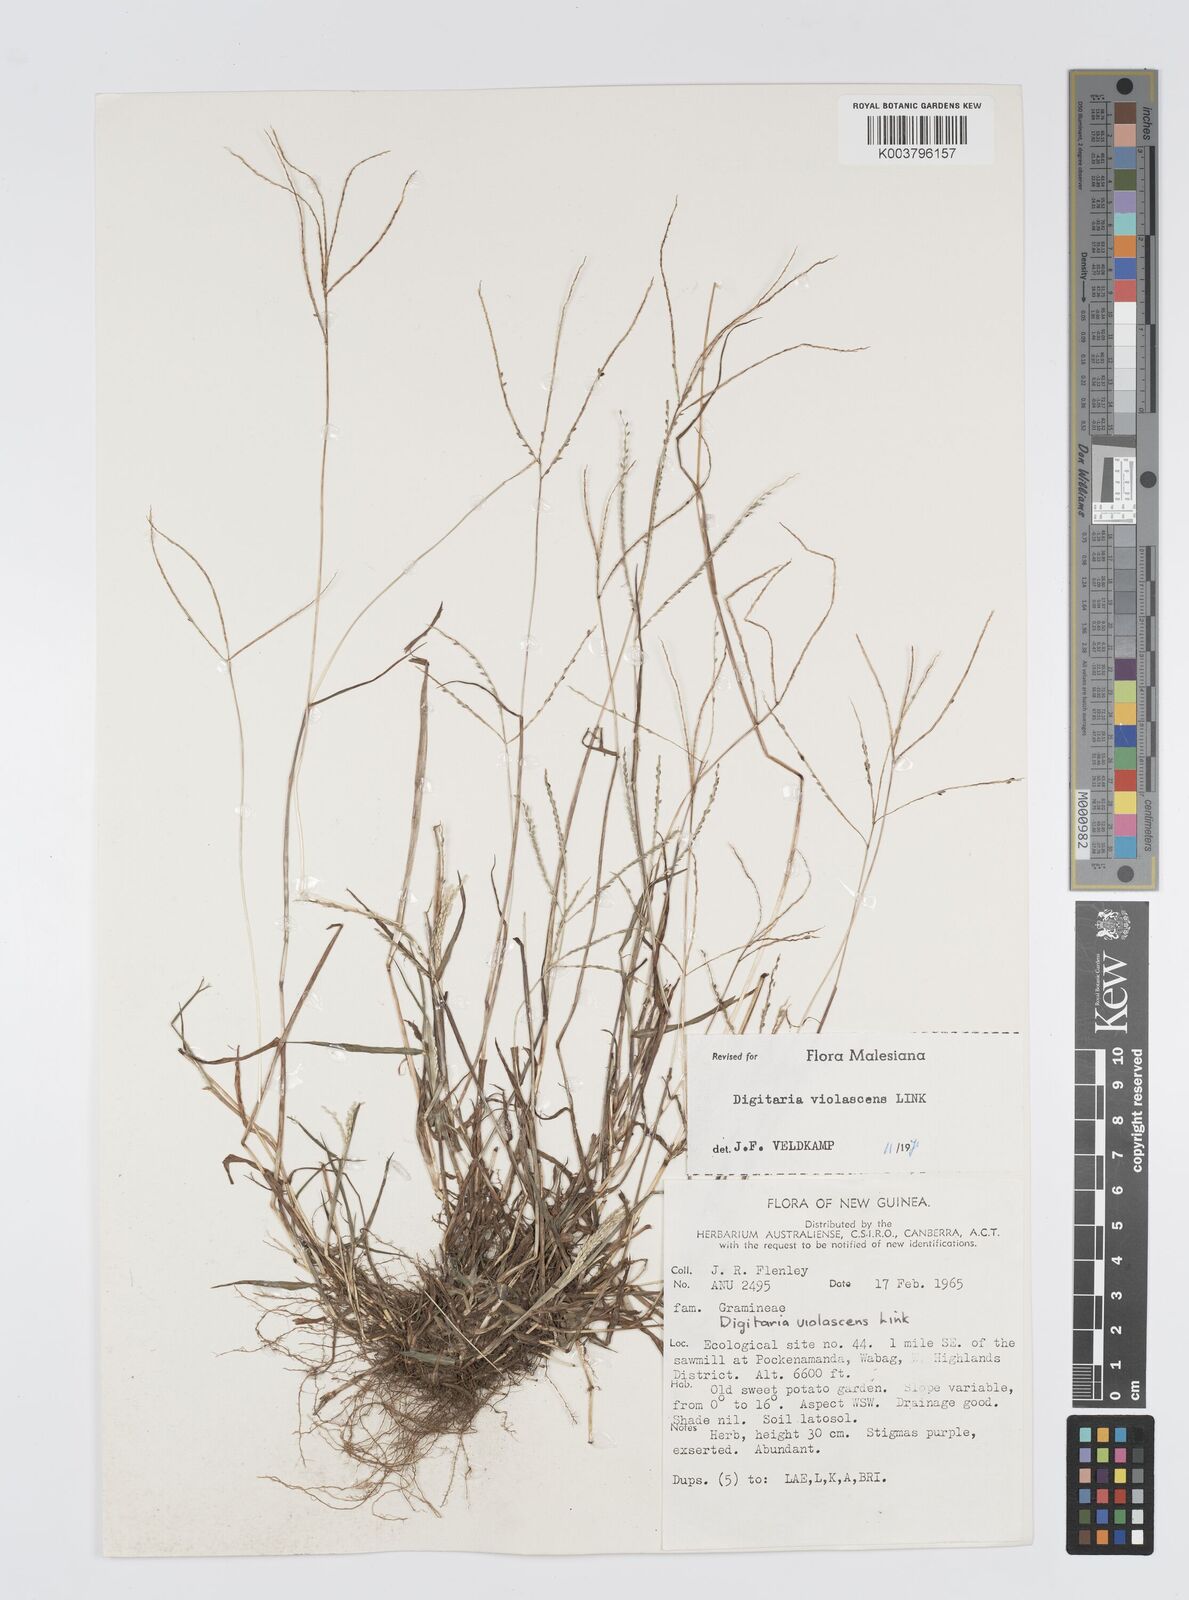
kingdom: Plantae
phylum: Tracheophyta
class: Liliopsida
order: Poales
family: Poaceae
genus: Digitaria
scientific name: Digitaria violascens
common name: Violet crabgrass
